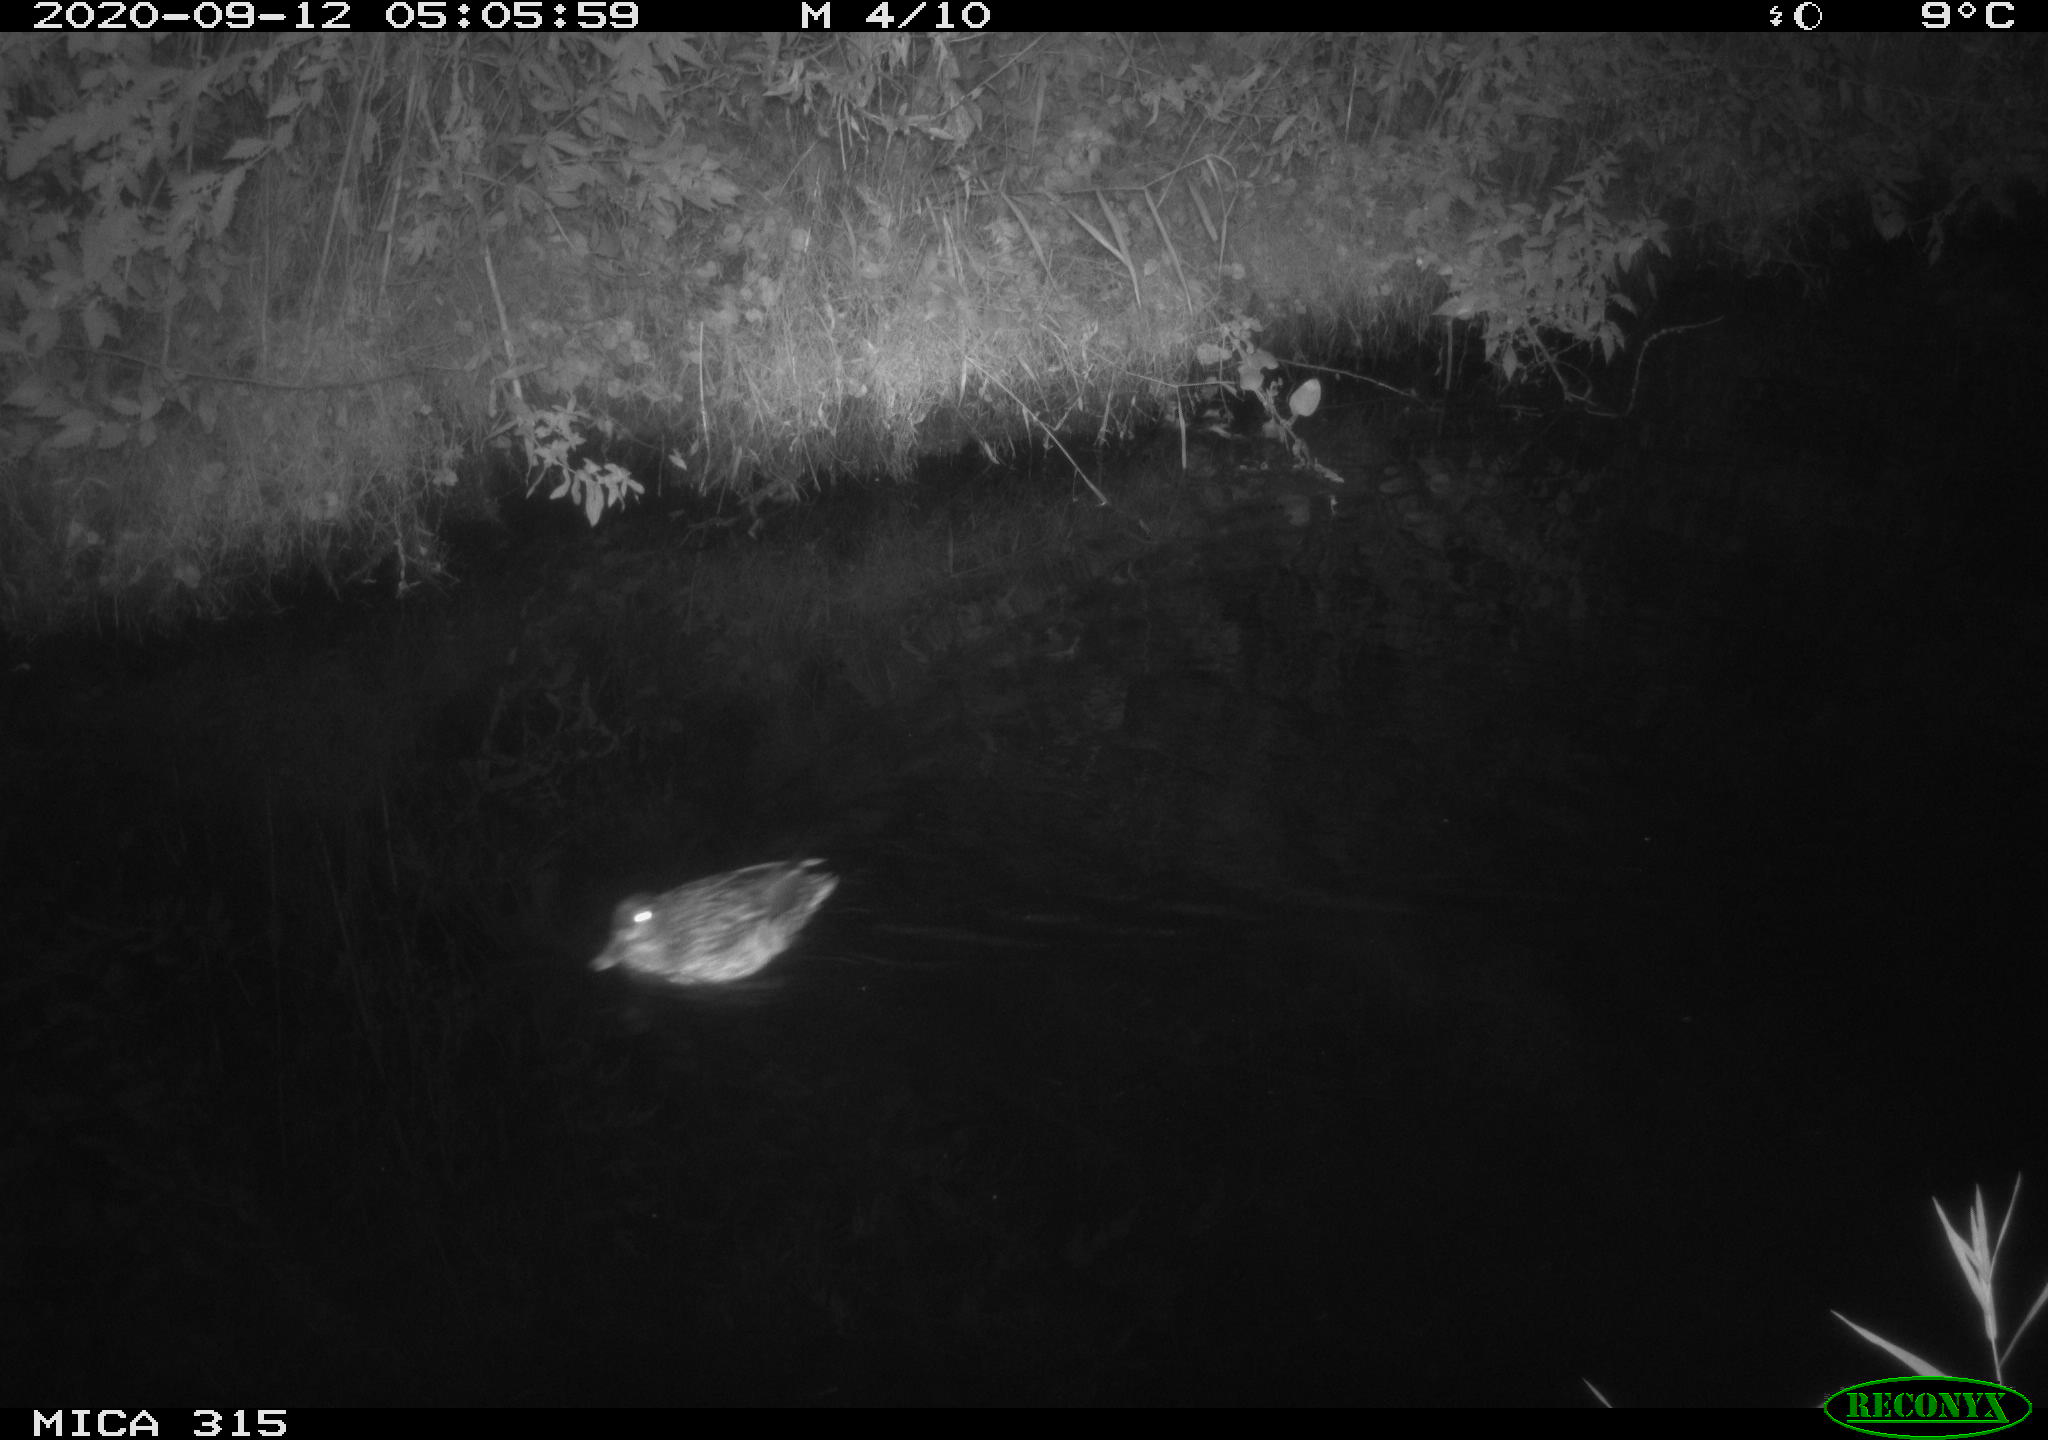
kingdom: Animalia
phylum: Chordata
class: Aves
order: Anseriformes
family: Anatidae
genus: Anas
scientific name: Anas platyrhynchos
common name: Mallard
